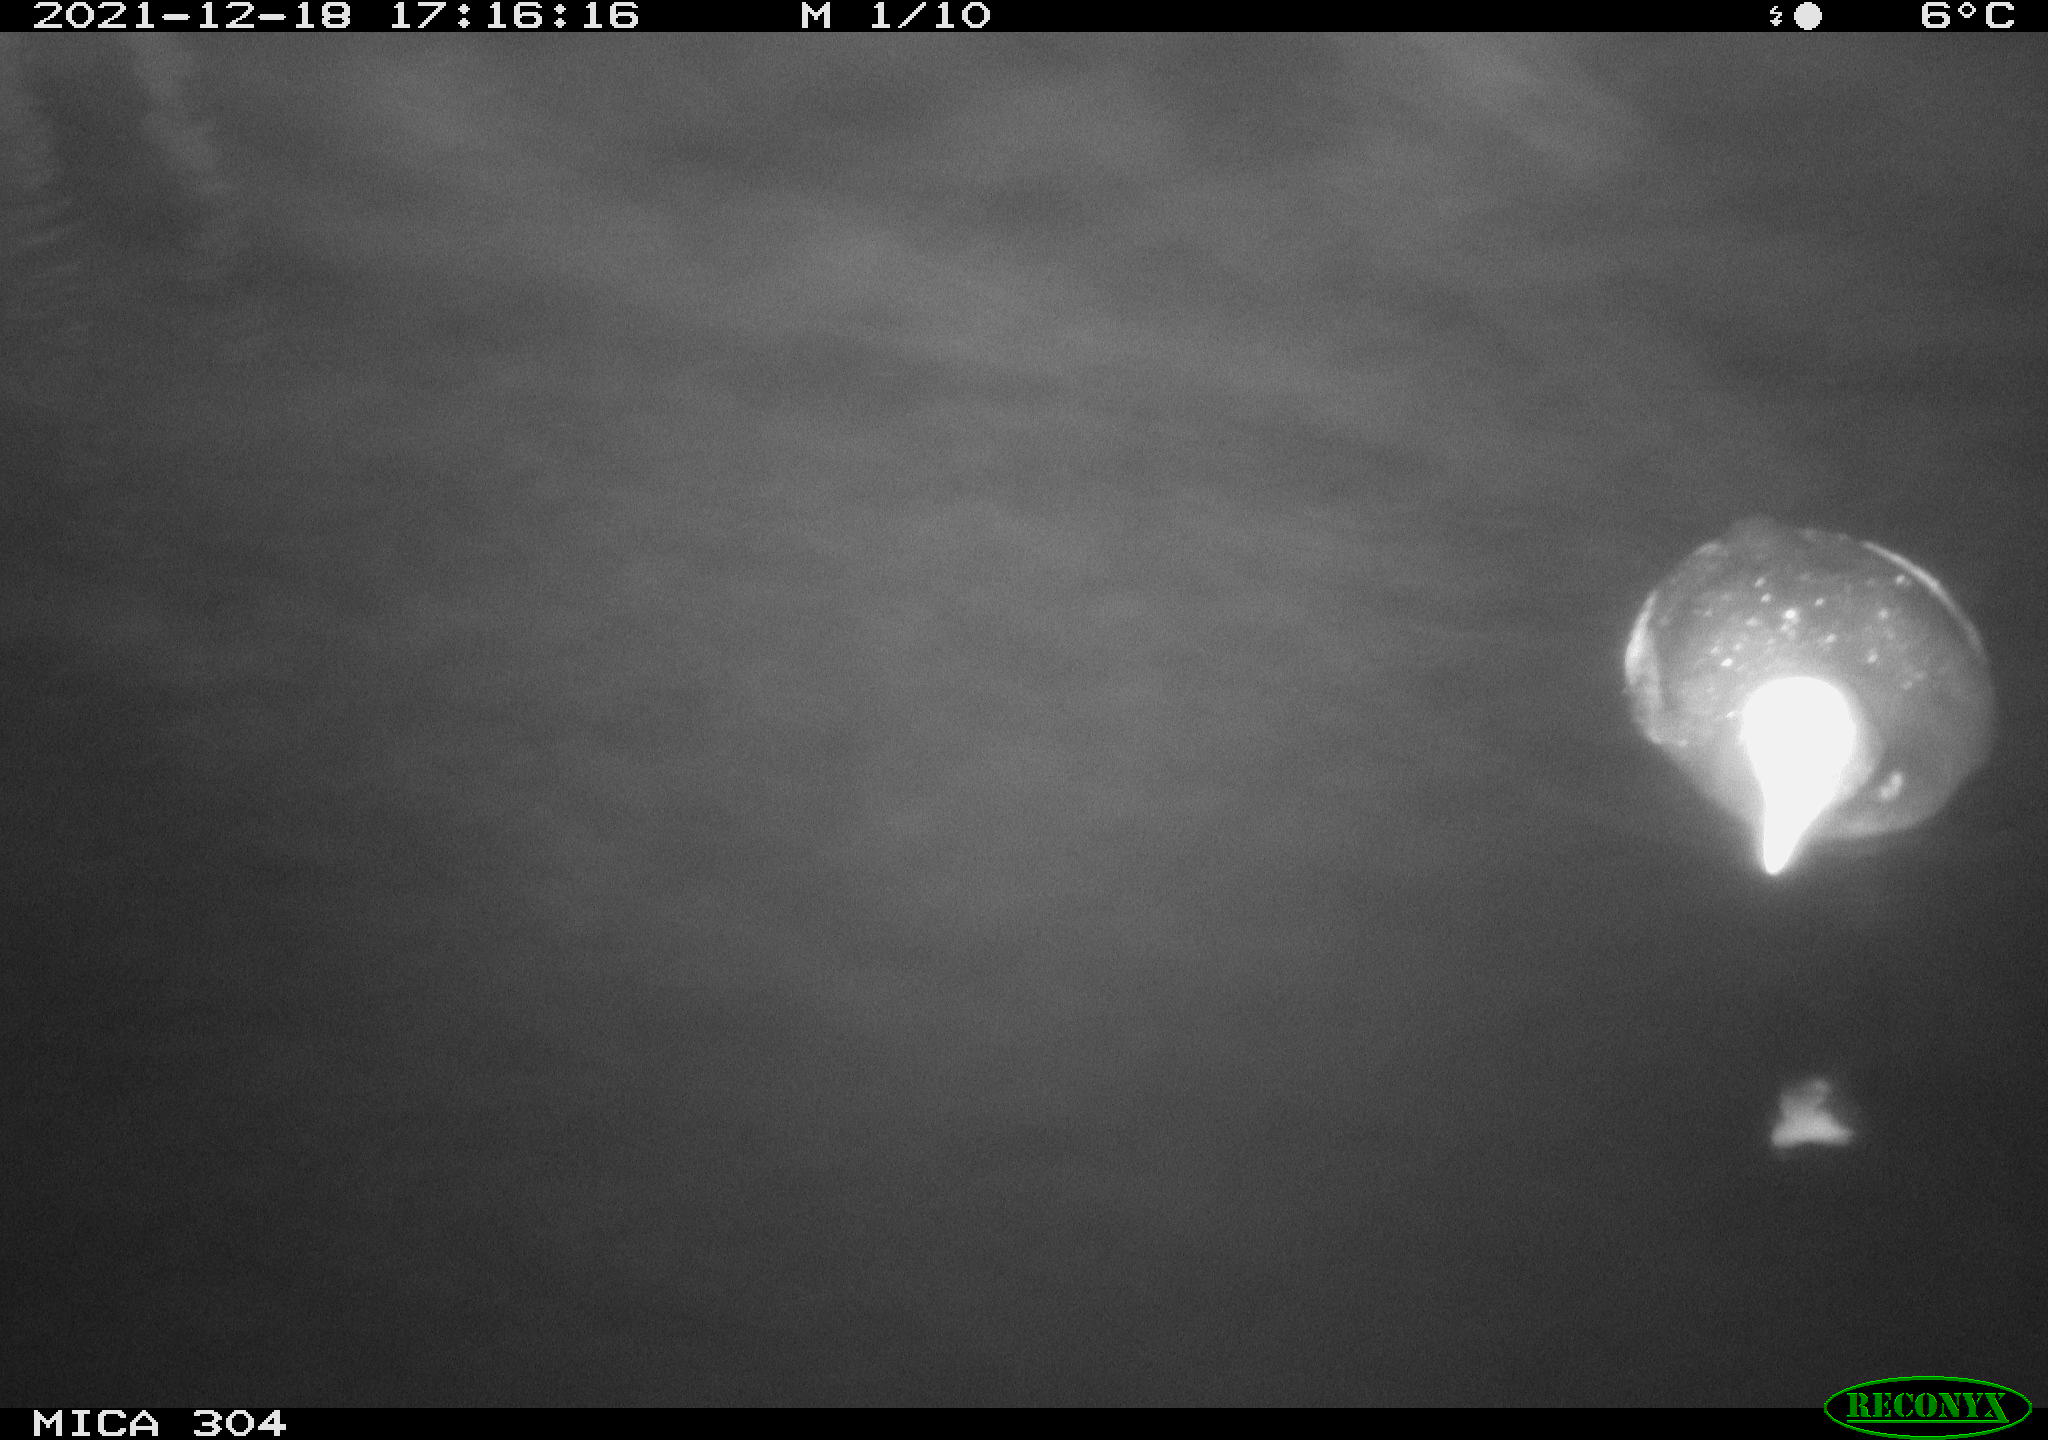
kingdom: Animalia
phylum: Chordata
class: Aves
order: Anseriformes
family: Anatidae
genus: Anas
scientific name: Anas
